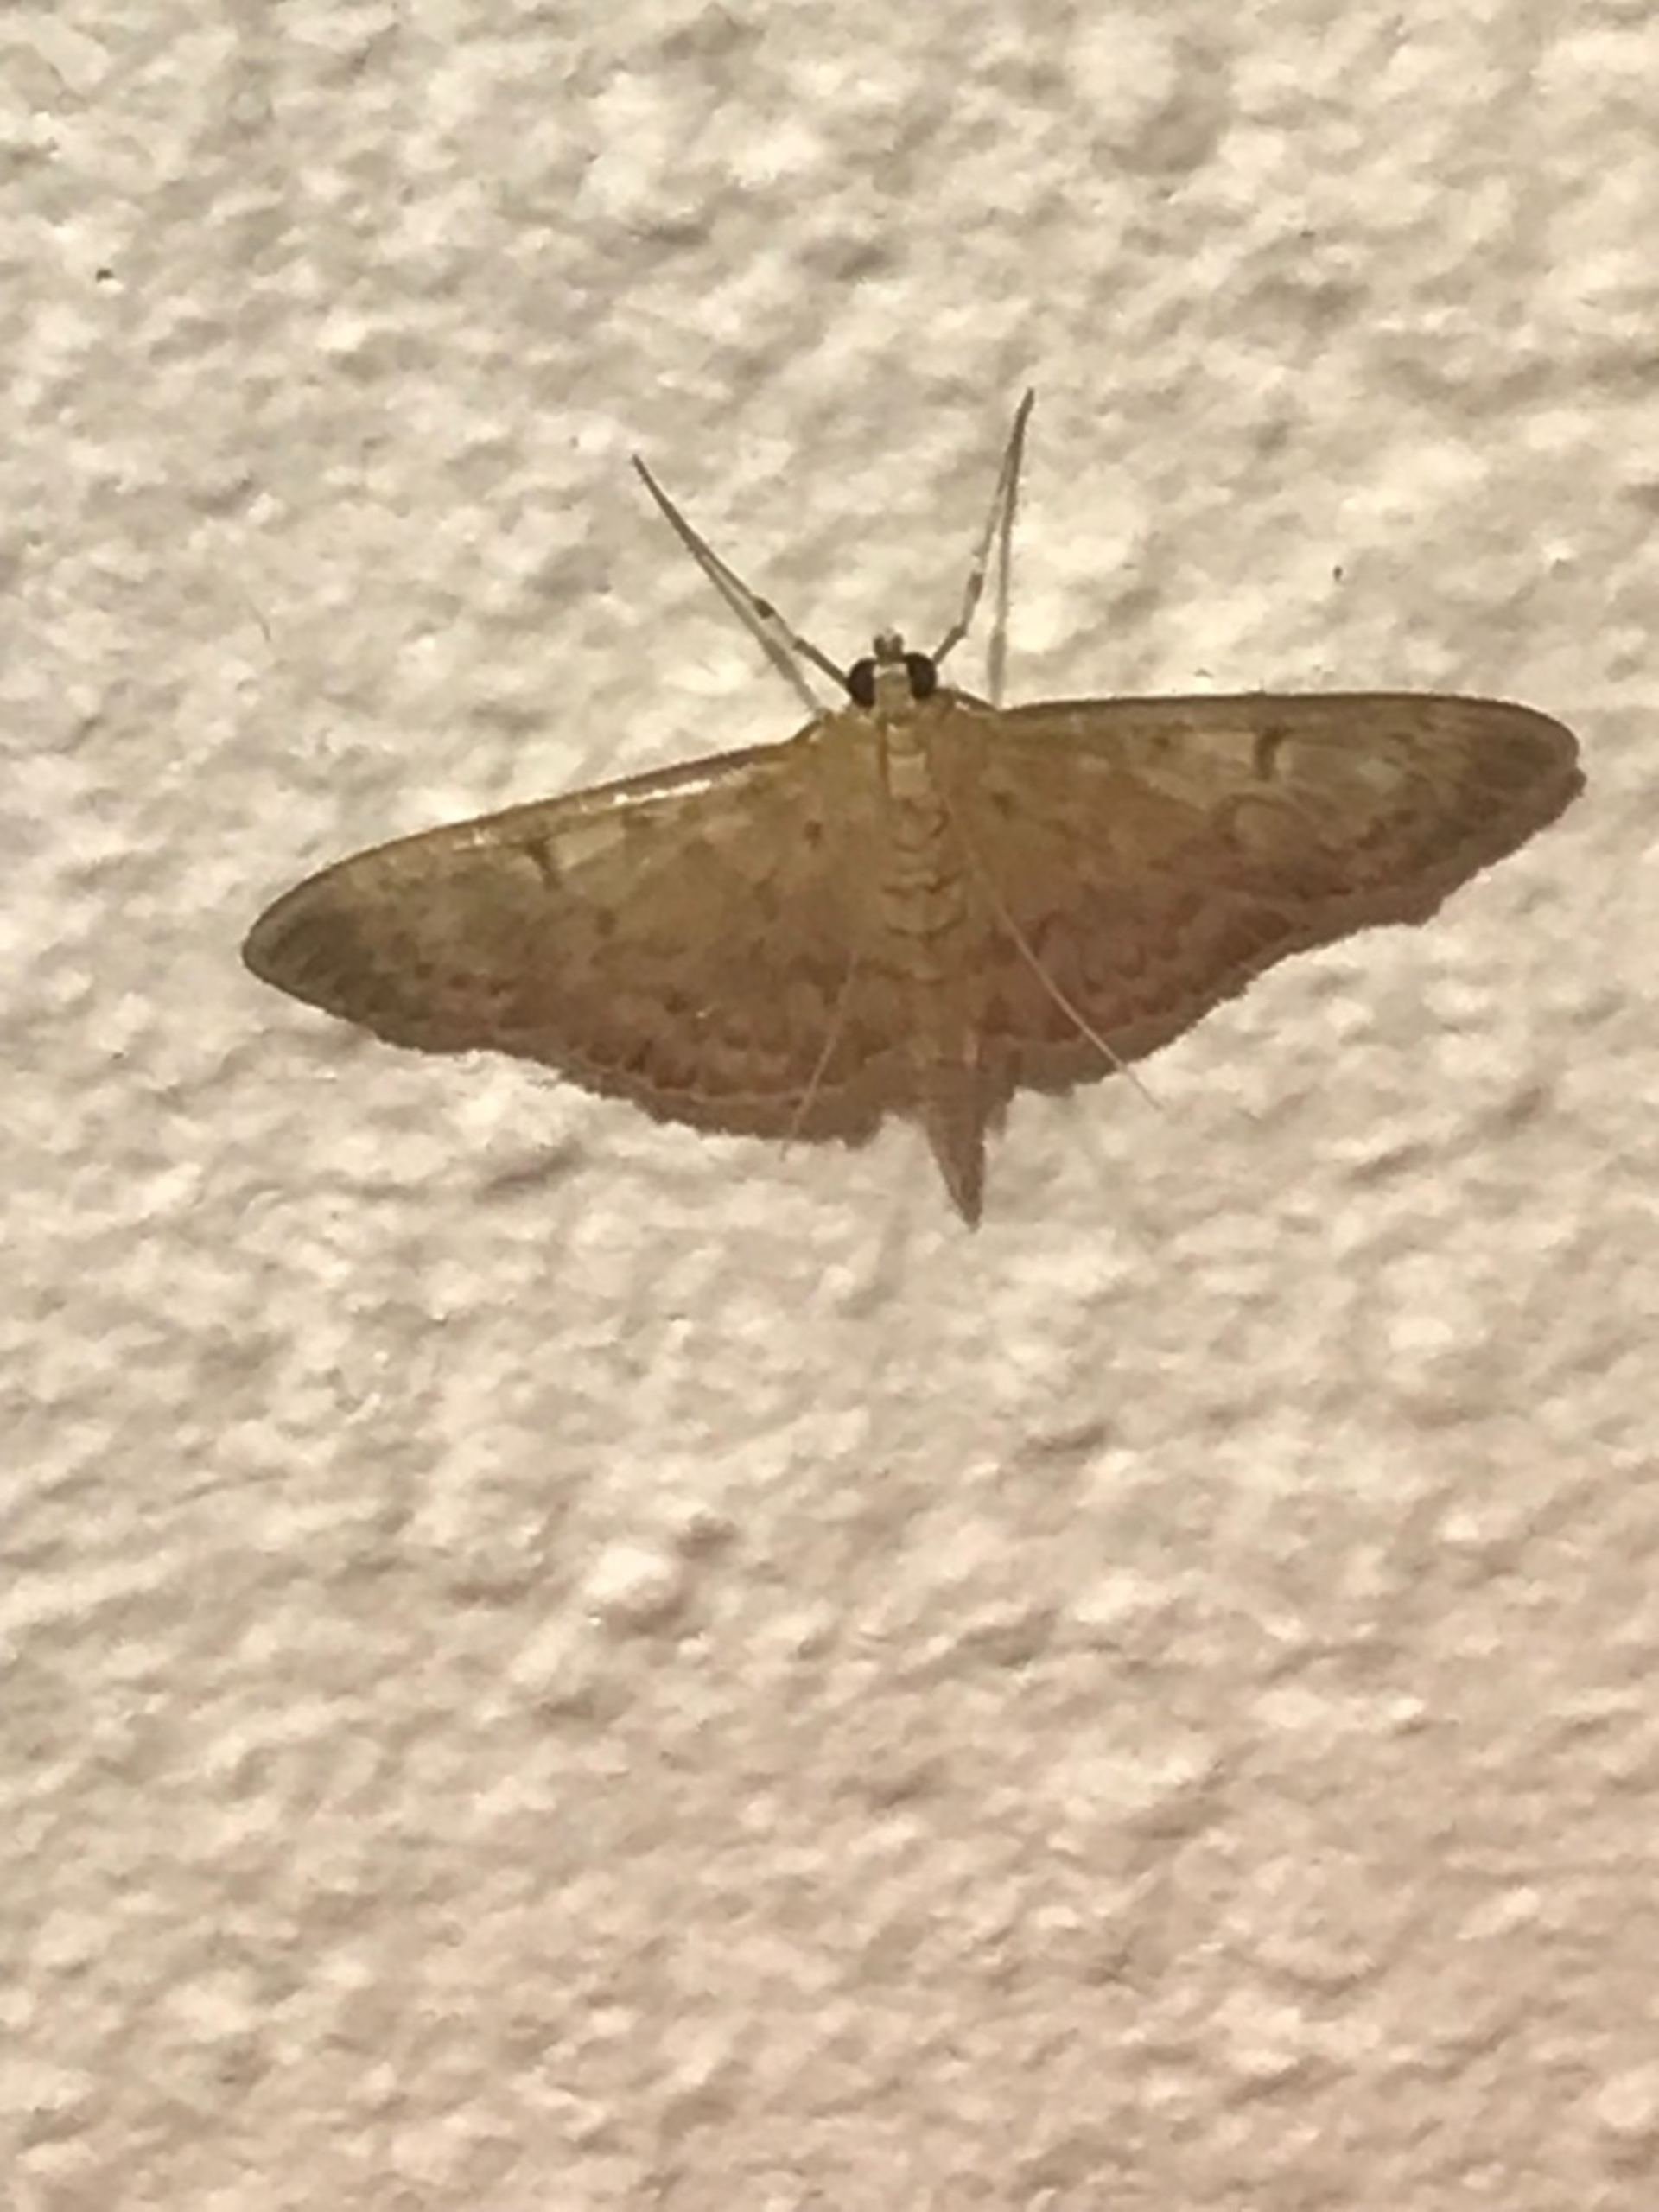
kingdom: Animalia
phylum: Arthropoda
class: Insecta
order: Lepidoptera
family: Crambidae
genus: Patania
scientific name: Patania ruralis
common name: Perlemorshalvmøl
